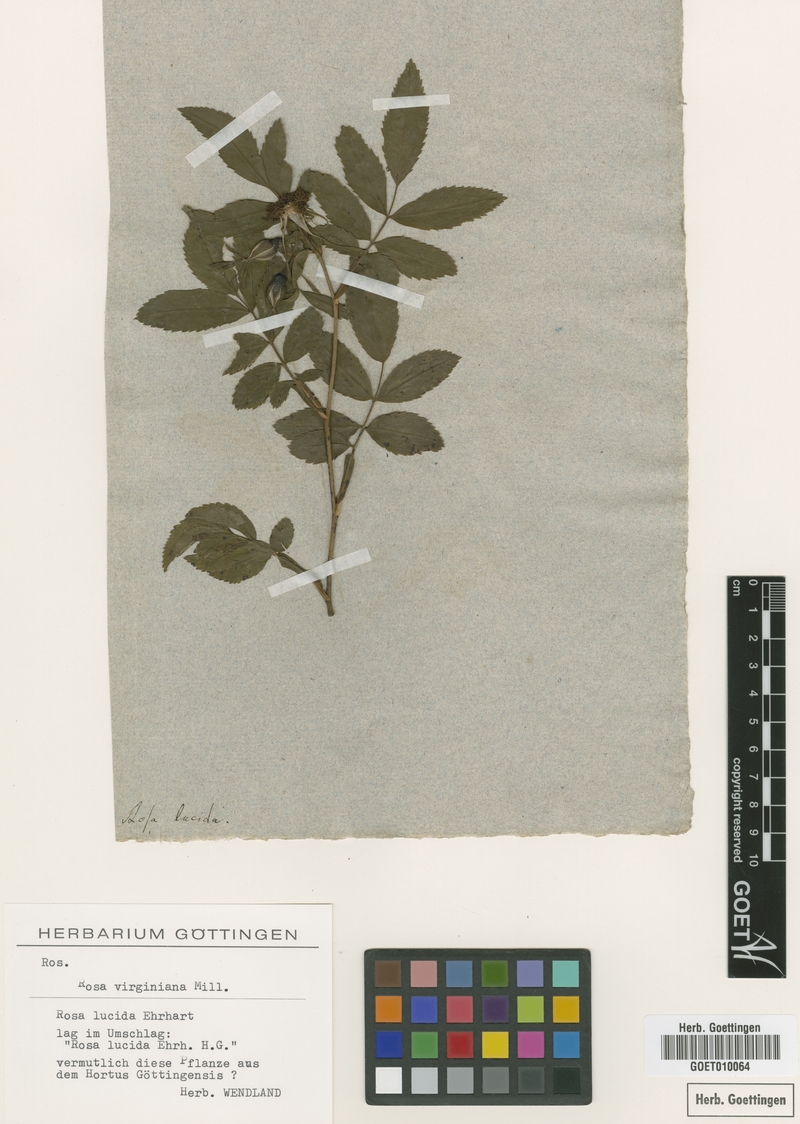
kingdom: Plantae
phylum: Tracheophyta
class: Magnoliopsida
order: Rosales
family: Rosaceae
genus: Rosa
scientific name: Rosa carolina
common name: Pasture rose
